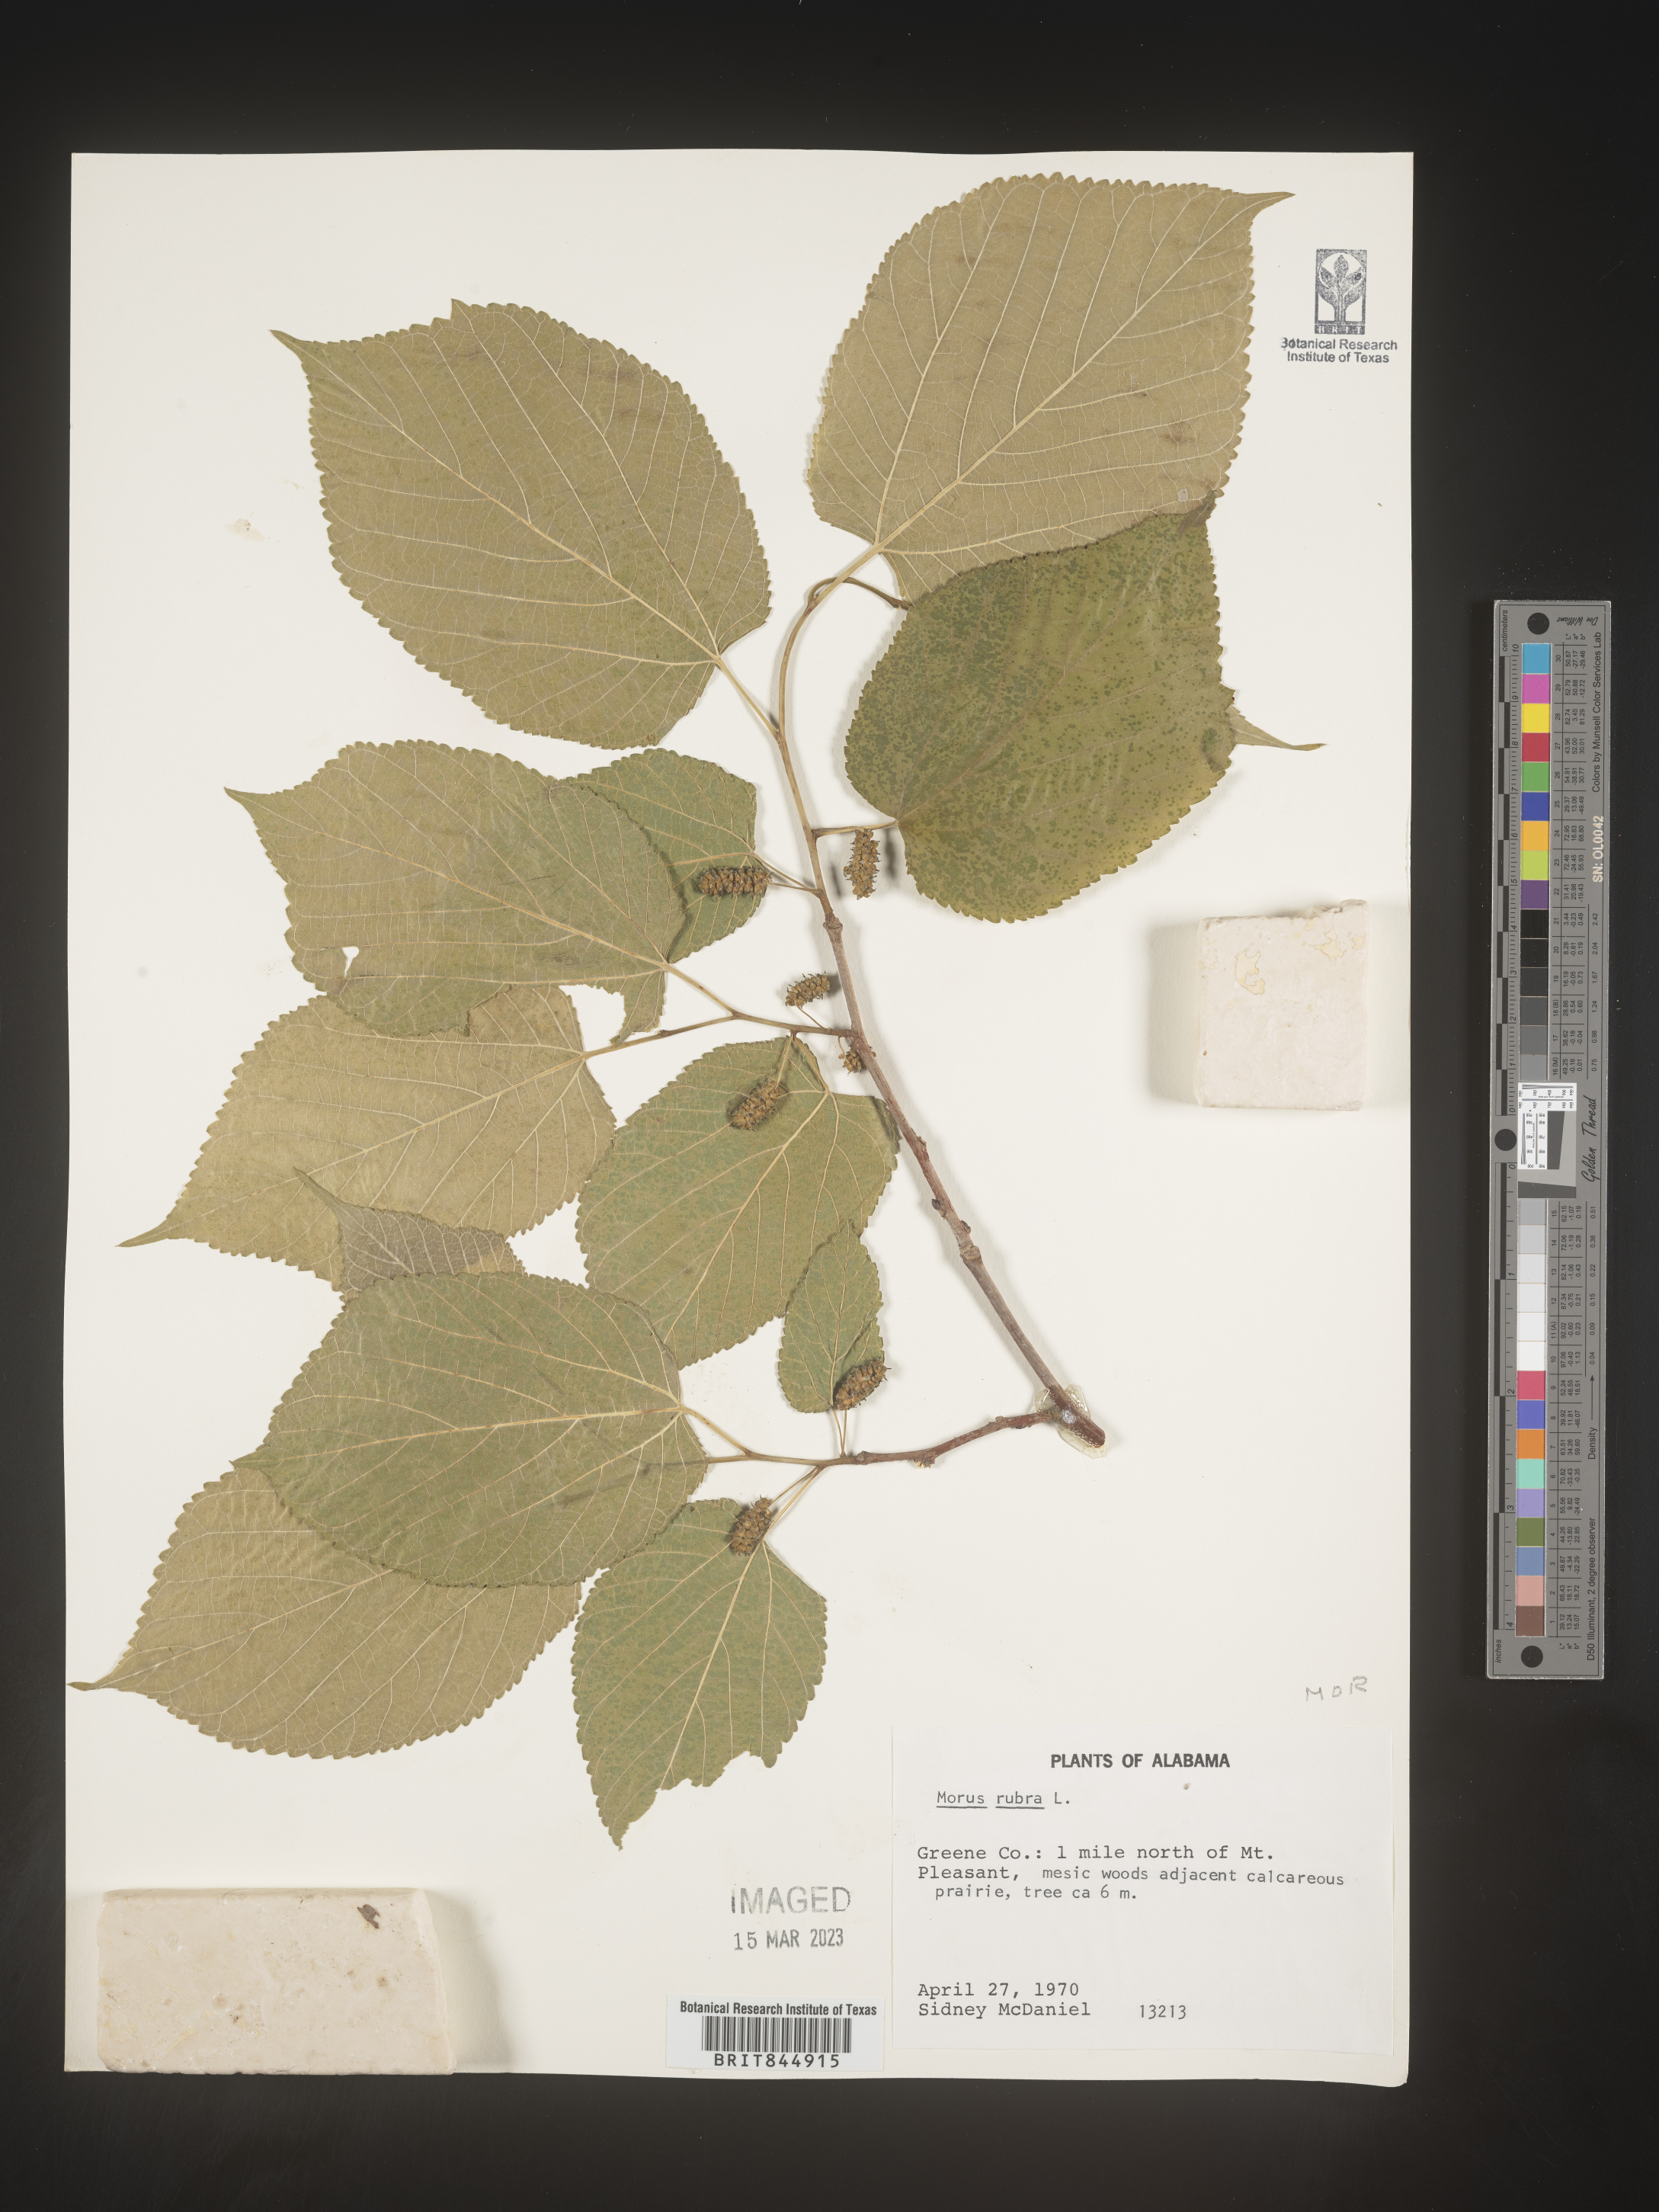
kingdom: Plantae
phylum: Tracheophyta
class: Magnoliopsida
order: Rosales
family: Moraceae
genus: Morus
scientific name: Morus rubra
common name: Red mulberry
